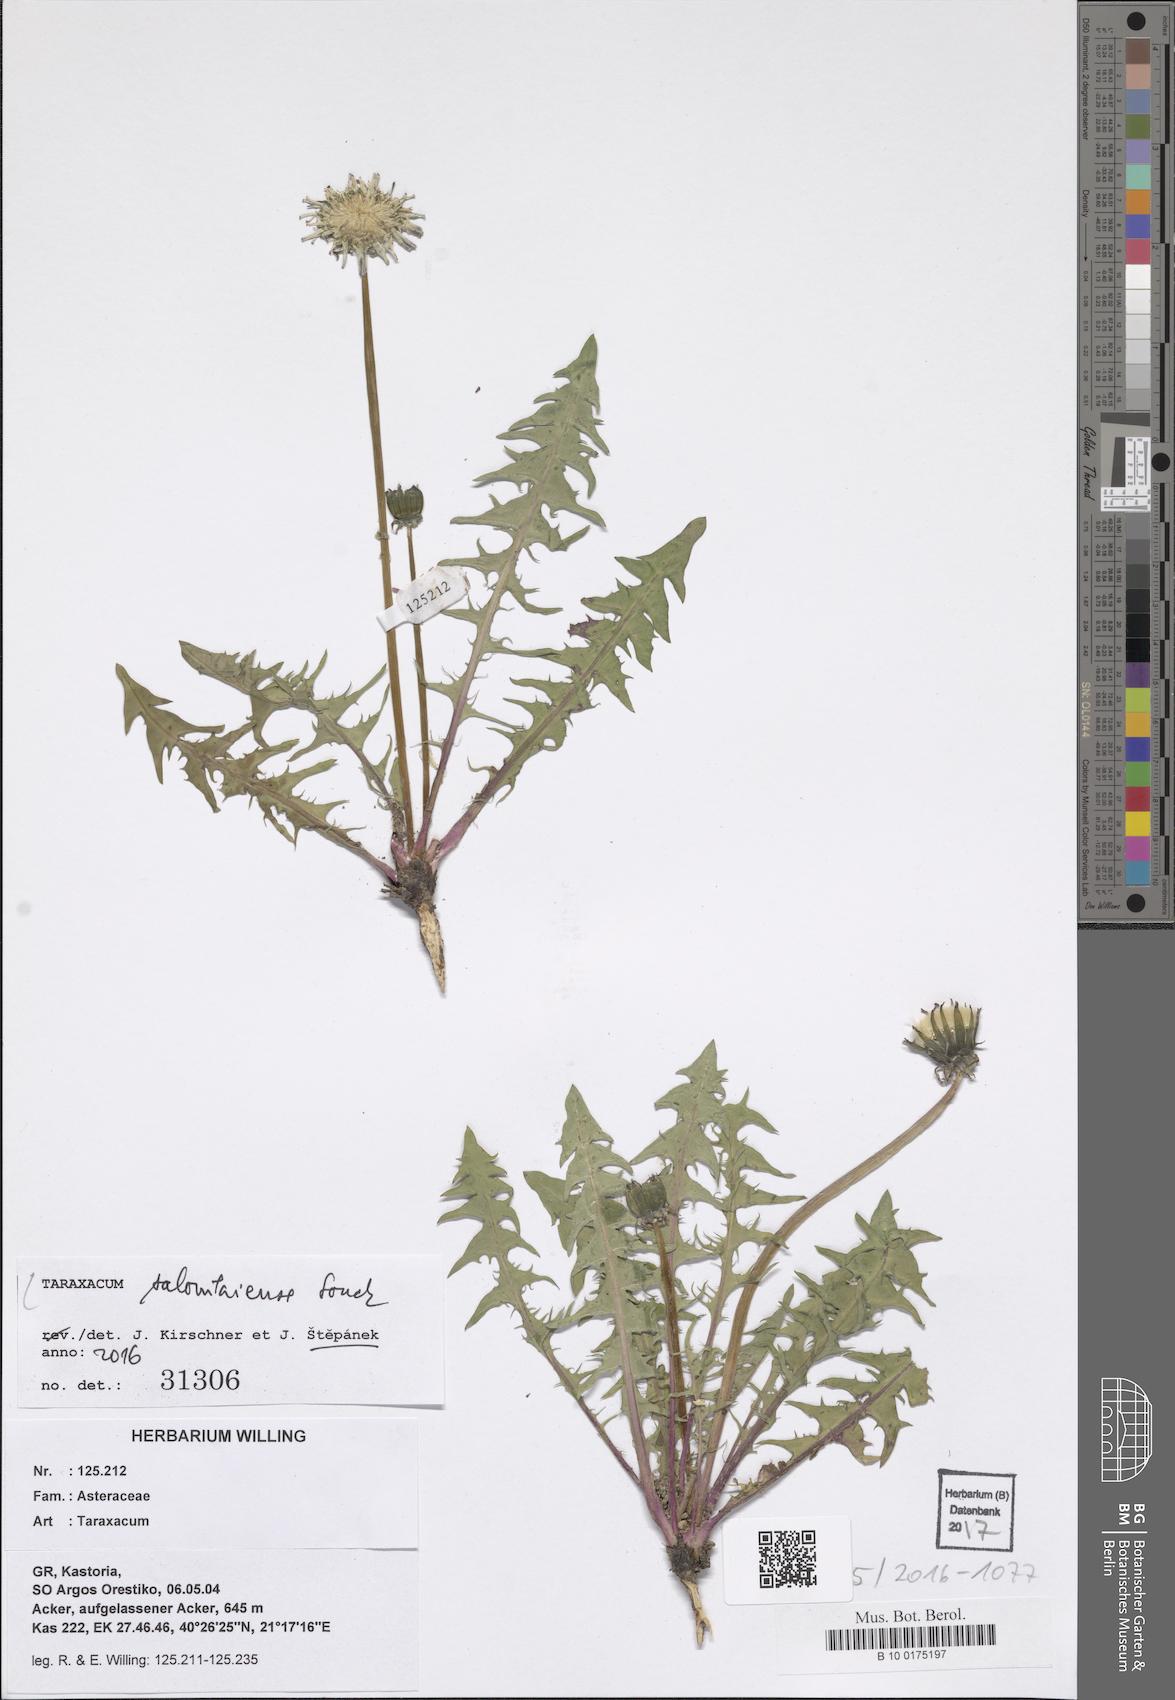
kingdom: Plantae
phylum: Tracheophyta
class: Magnoliopsida
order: Asterales
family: Asteraceae
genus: Taraxacum
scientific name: Taraxacum salonikiense
